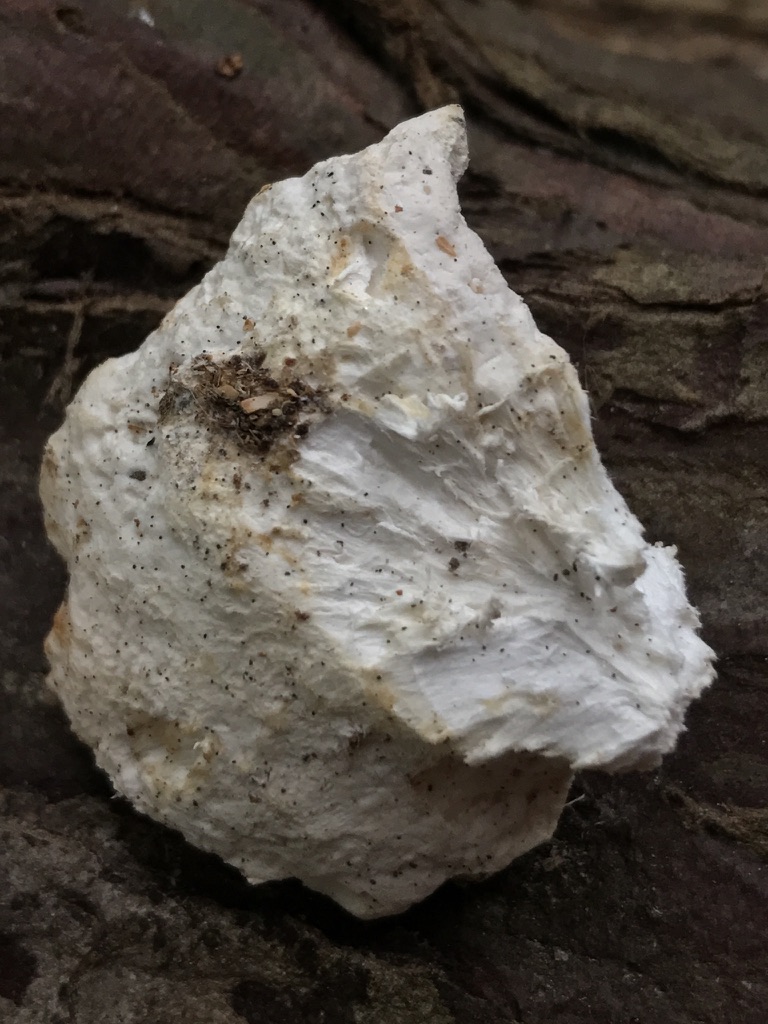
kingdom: Fungi
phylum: Basidiomycota
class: Agaricomycetes
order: Polyporales
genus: Amaropostia
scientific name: Amaropostia stiptica
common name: bitter kødporesvamp
